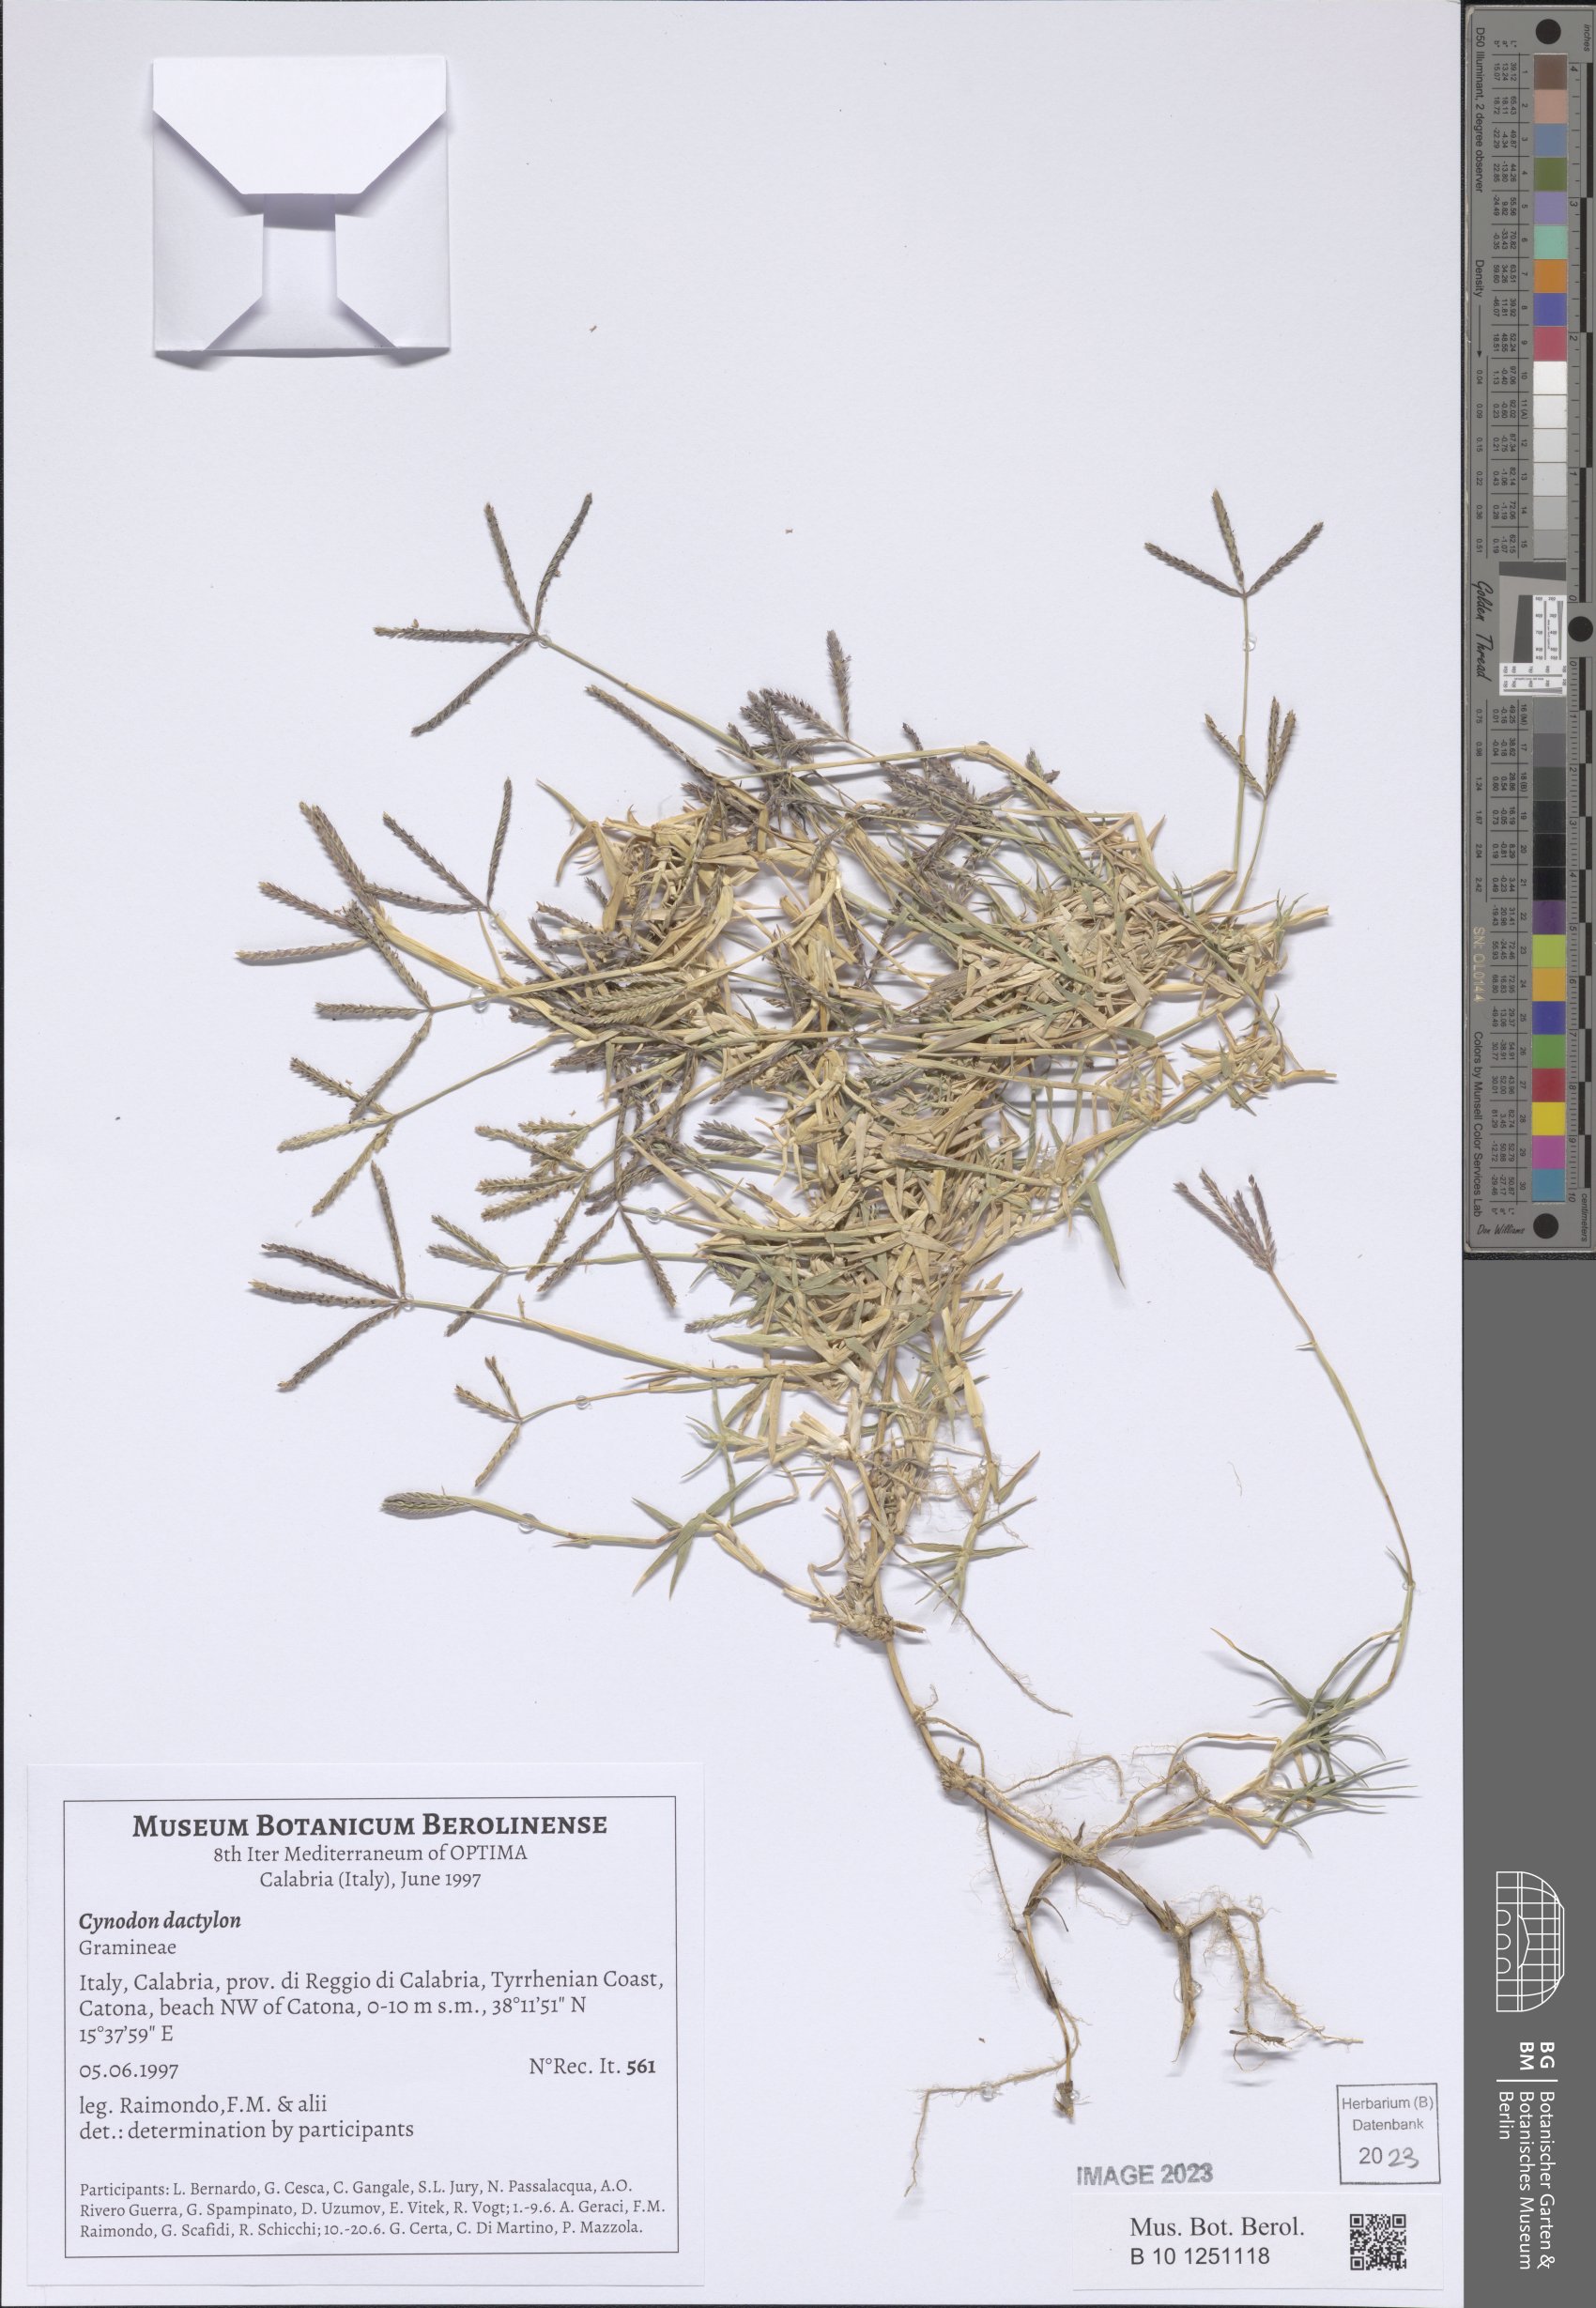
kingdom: Plantae
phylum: Tracheophyta
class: Liliopsida
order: Poales
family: Poaceae
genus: Cynodon
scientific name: Cynodon dactylon
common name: Bermuda grass
